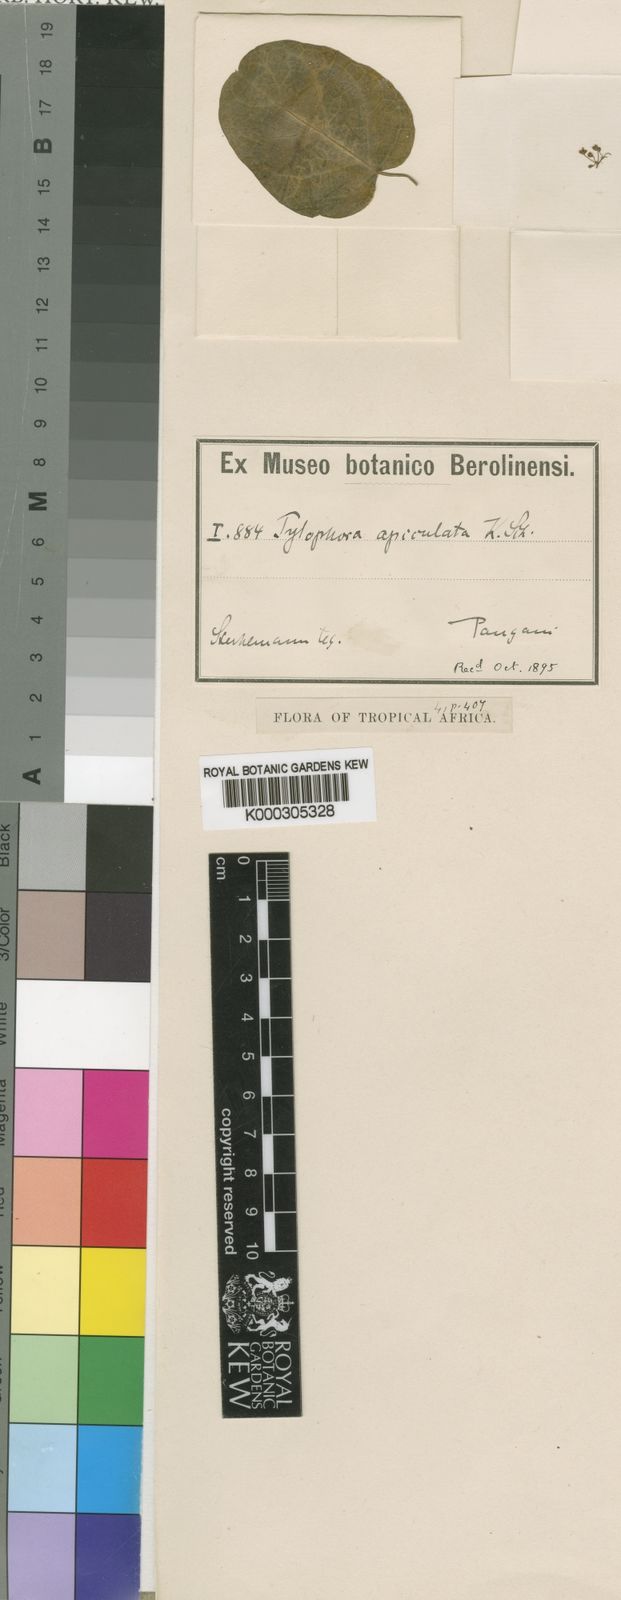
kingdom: Plantae
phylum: Tracheophyta
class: Magnoliopsida
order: Gentianales
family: Apocynaceae
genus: Vincetoxicum
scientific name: Vincetoxicum apiculatum
